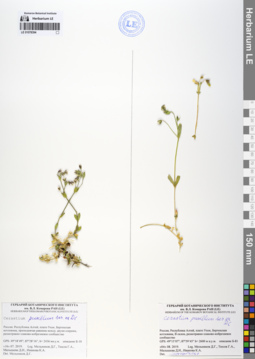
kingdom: Plantae
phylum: Tracheophyta
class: Magnoliopsida
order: Caryophyllales
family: Caryophyllaceae
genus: Cerastium
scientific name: Cerastium pusillum
